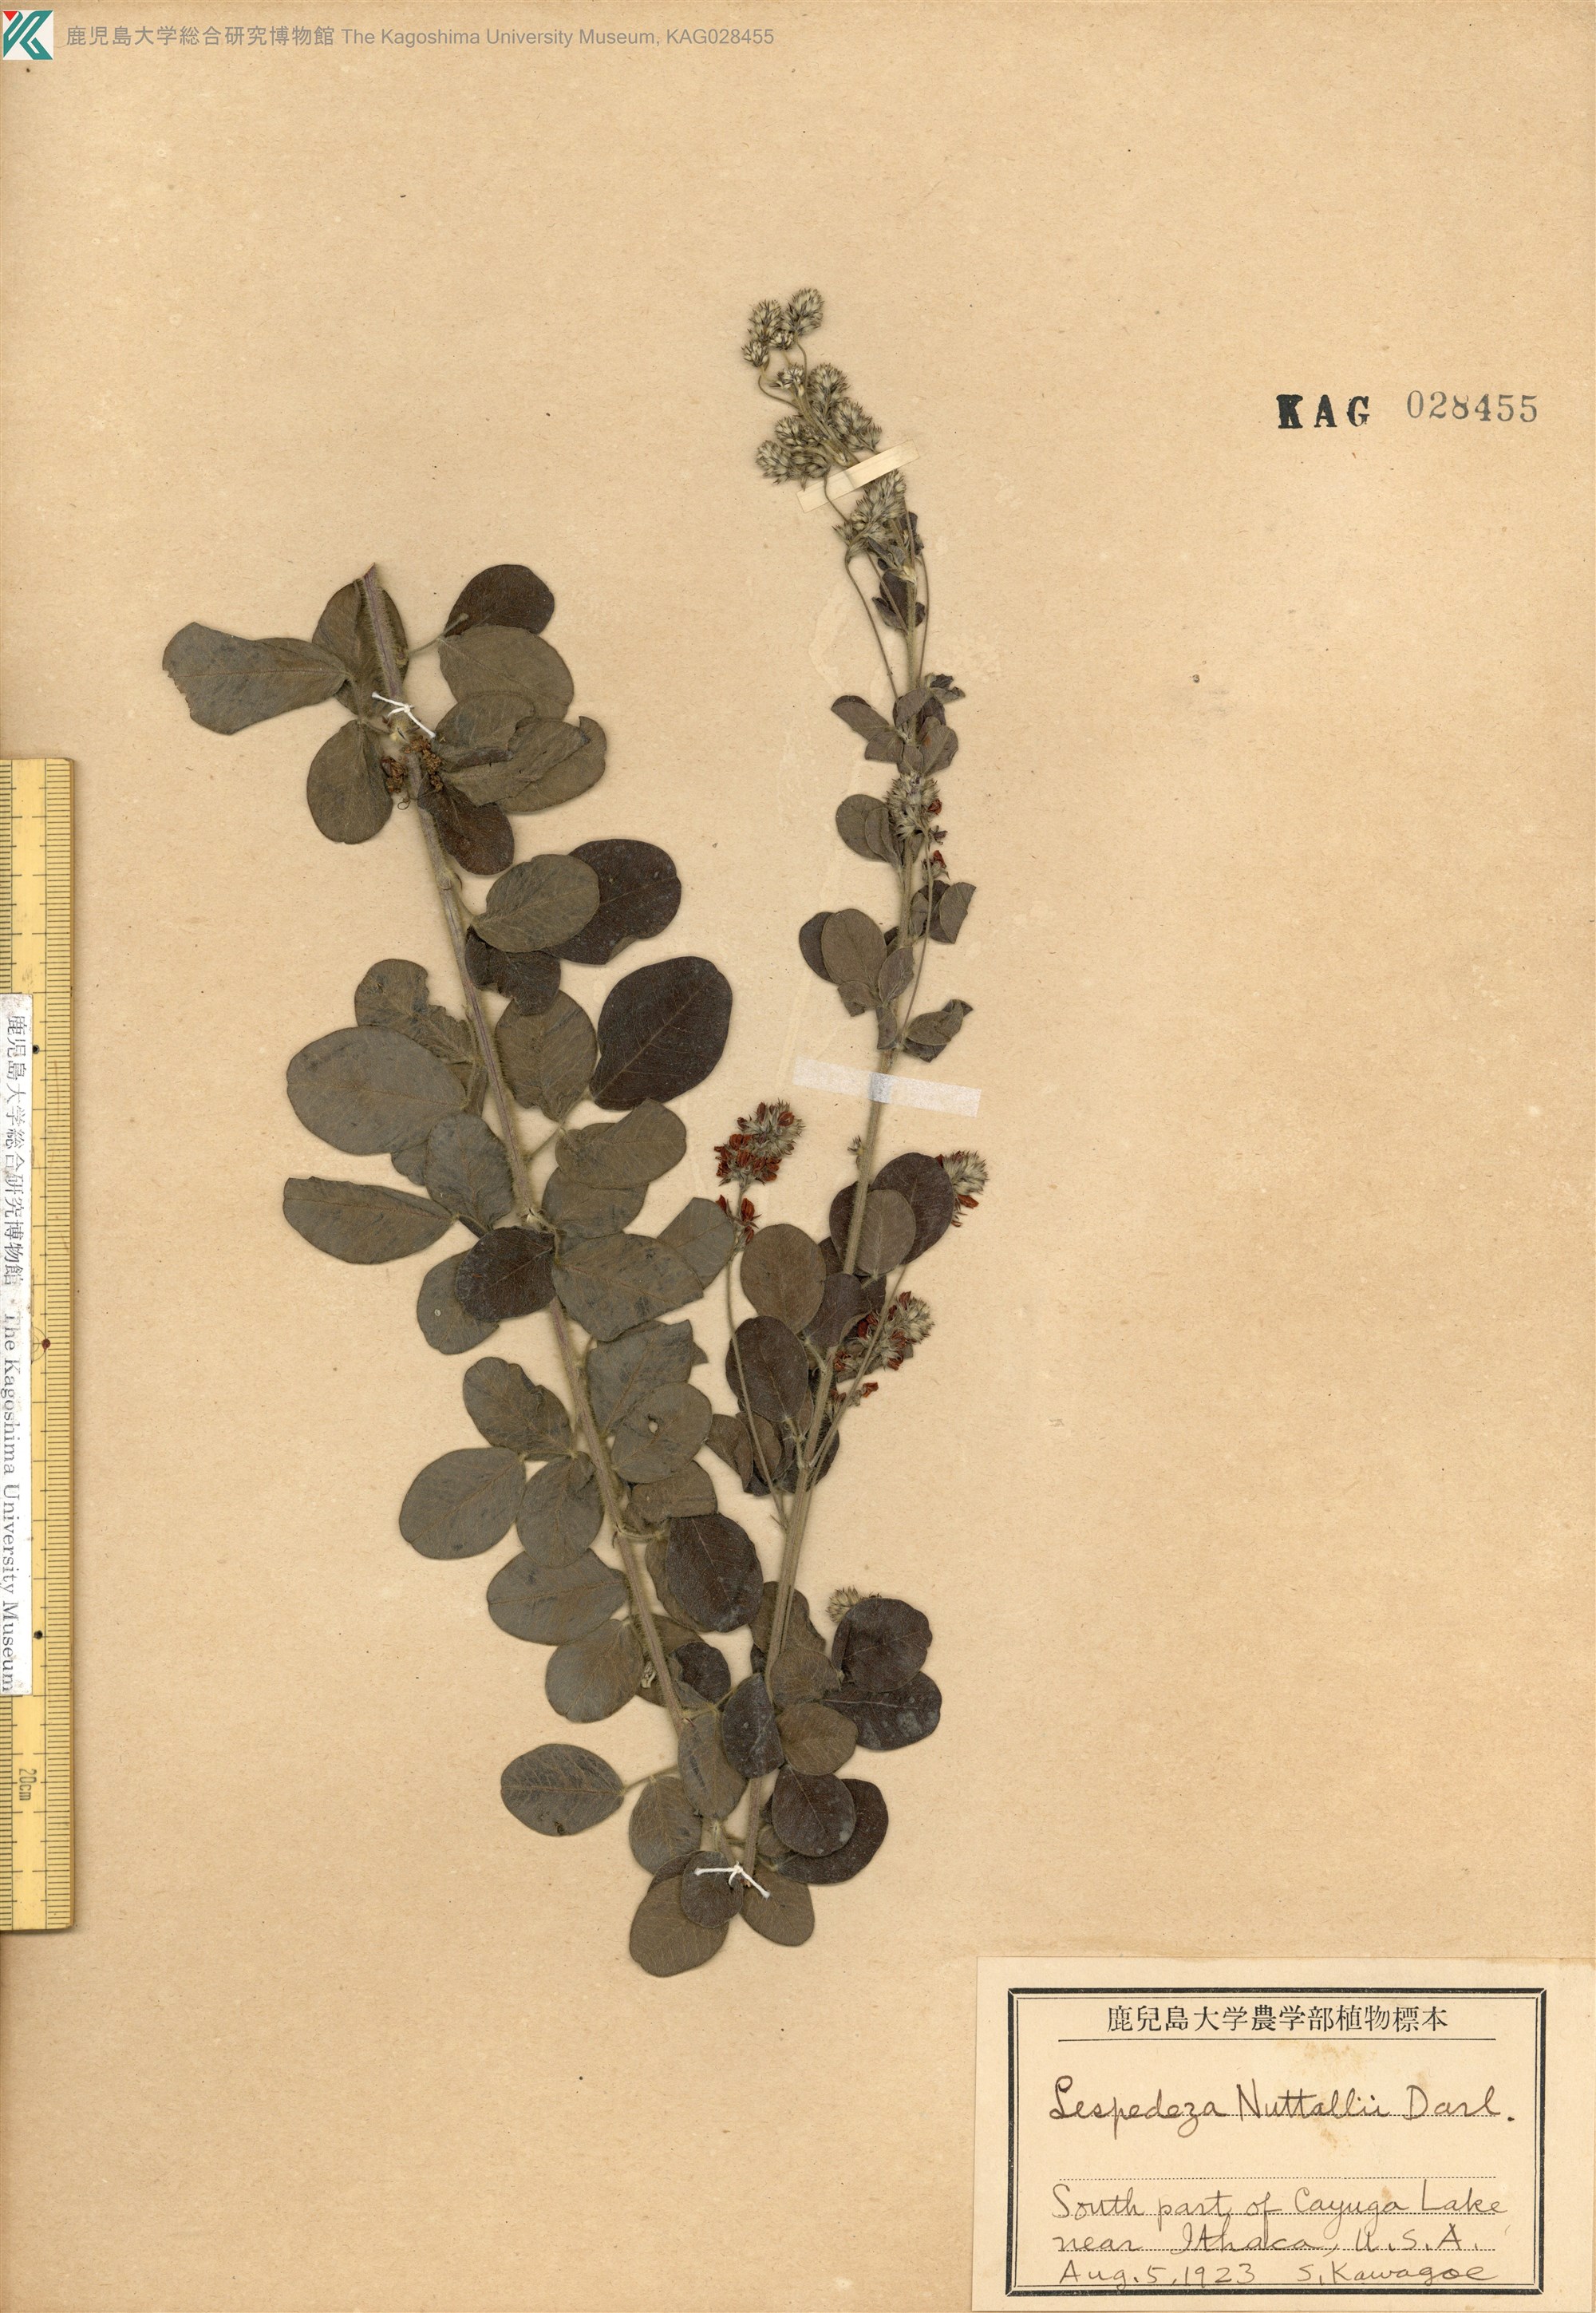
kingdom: Plantae
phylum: Tracheophyta
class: Magnoliopsida
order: Fabales
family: Fabaceae
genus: Lespedeza
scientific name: Lespedeza nuttallii
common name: Nuttall's bush-clover
